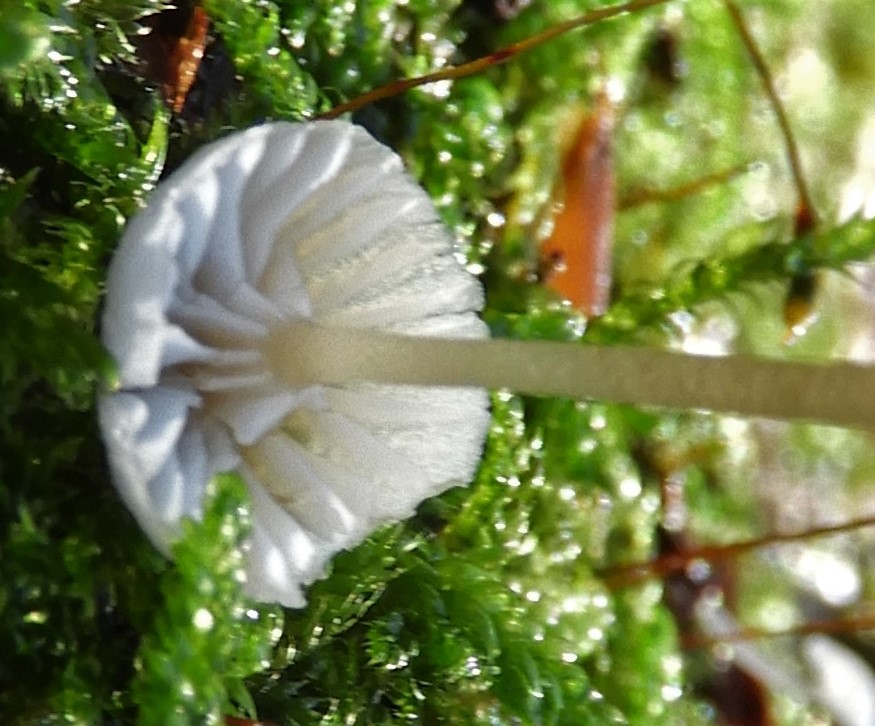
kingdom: Fungi
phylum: Basidiomycota
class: Agaricomycetes
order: Agaricales
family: Porotheleaceae
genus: Phloeomana
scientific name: Phloeomana speirea
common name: kvist-huesvamp
